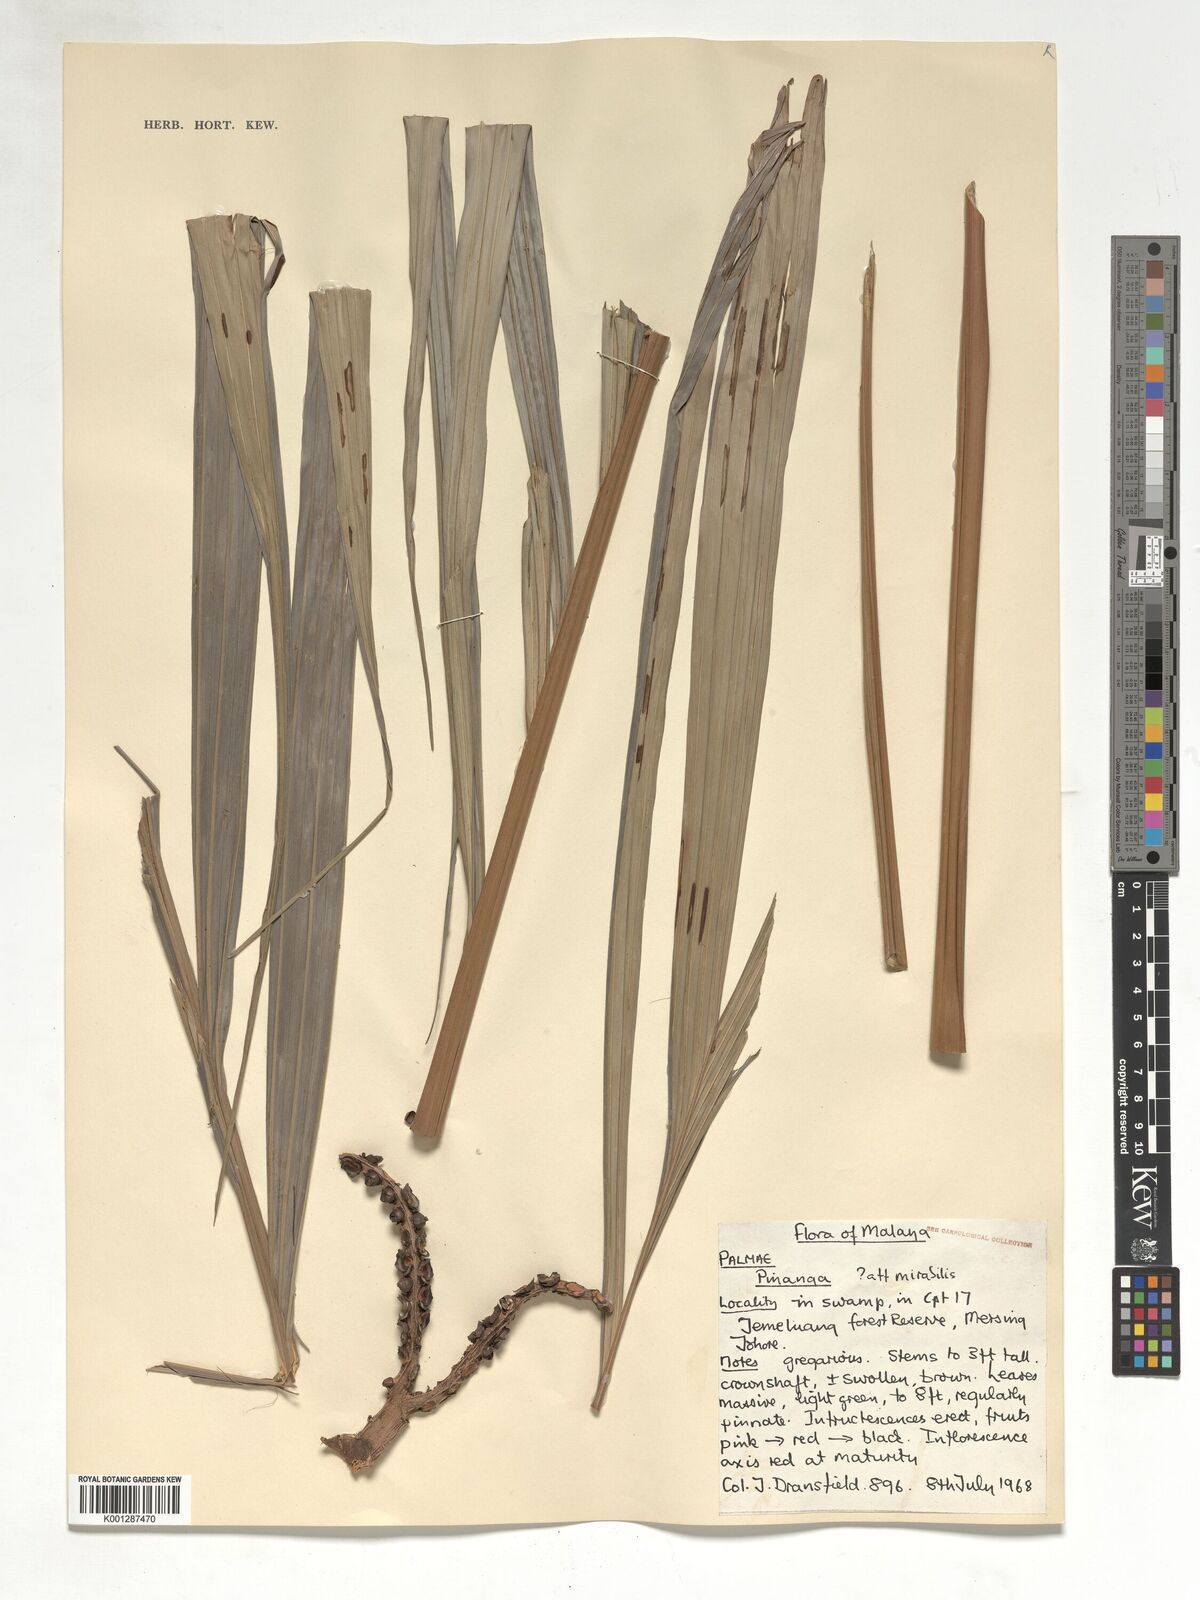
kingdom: Plantae
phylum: Tracheophyta
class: Liliopsida
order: Arecales
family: Arecaceae
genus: Pinanga
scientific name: Pinanga mirabilis
